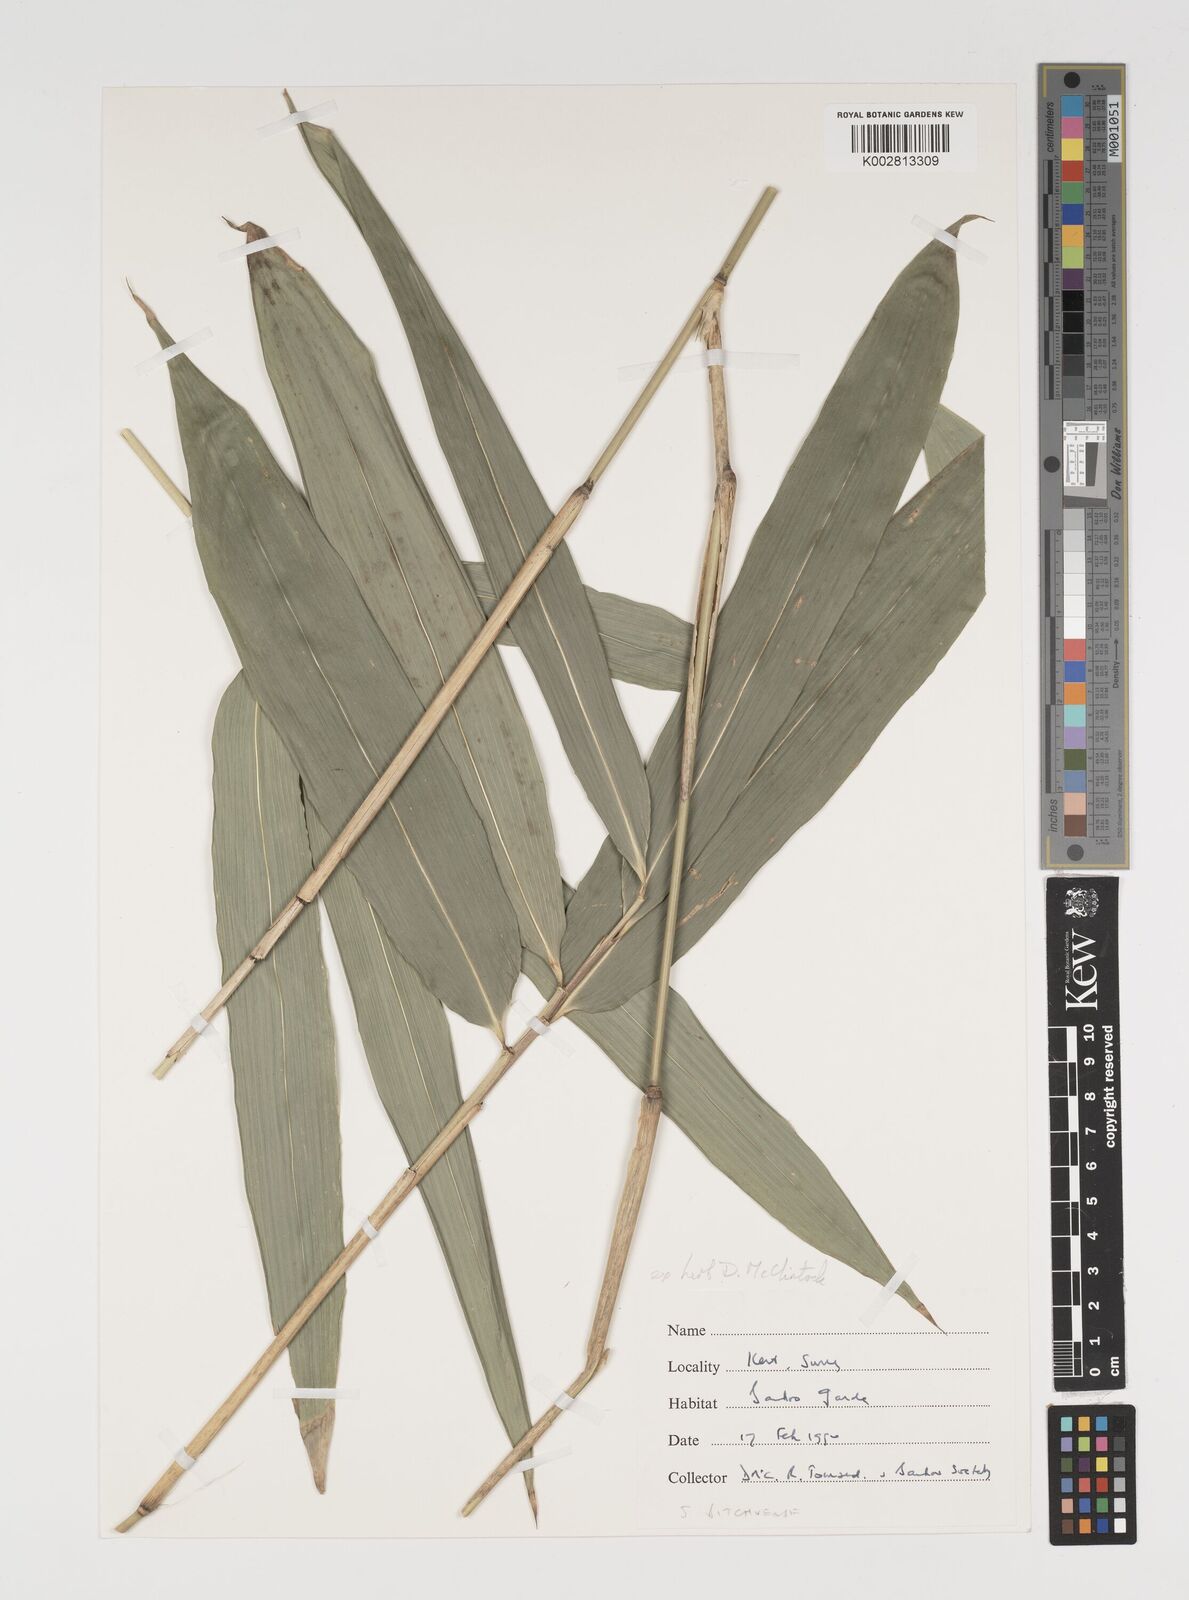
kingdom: Plantae
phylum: Tracheophyta
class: Liliopsida
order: Poales
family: Poaceae
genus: Sasaella
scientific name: Sasaella bitchuensis
